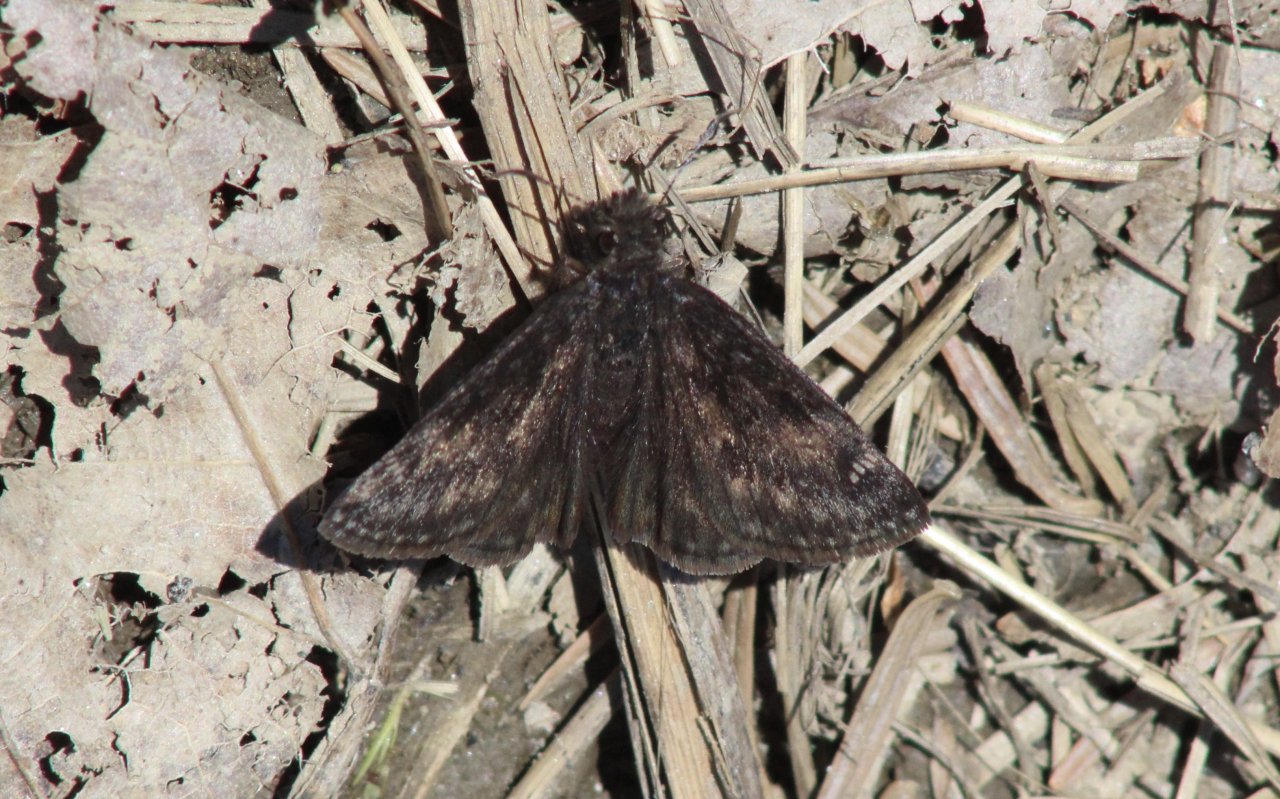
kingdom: Animalia
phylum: Arthropoda
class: Insecta
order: Lepidoptera
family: Hesperiidae
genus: Erynnis
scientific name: Erynnis
